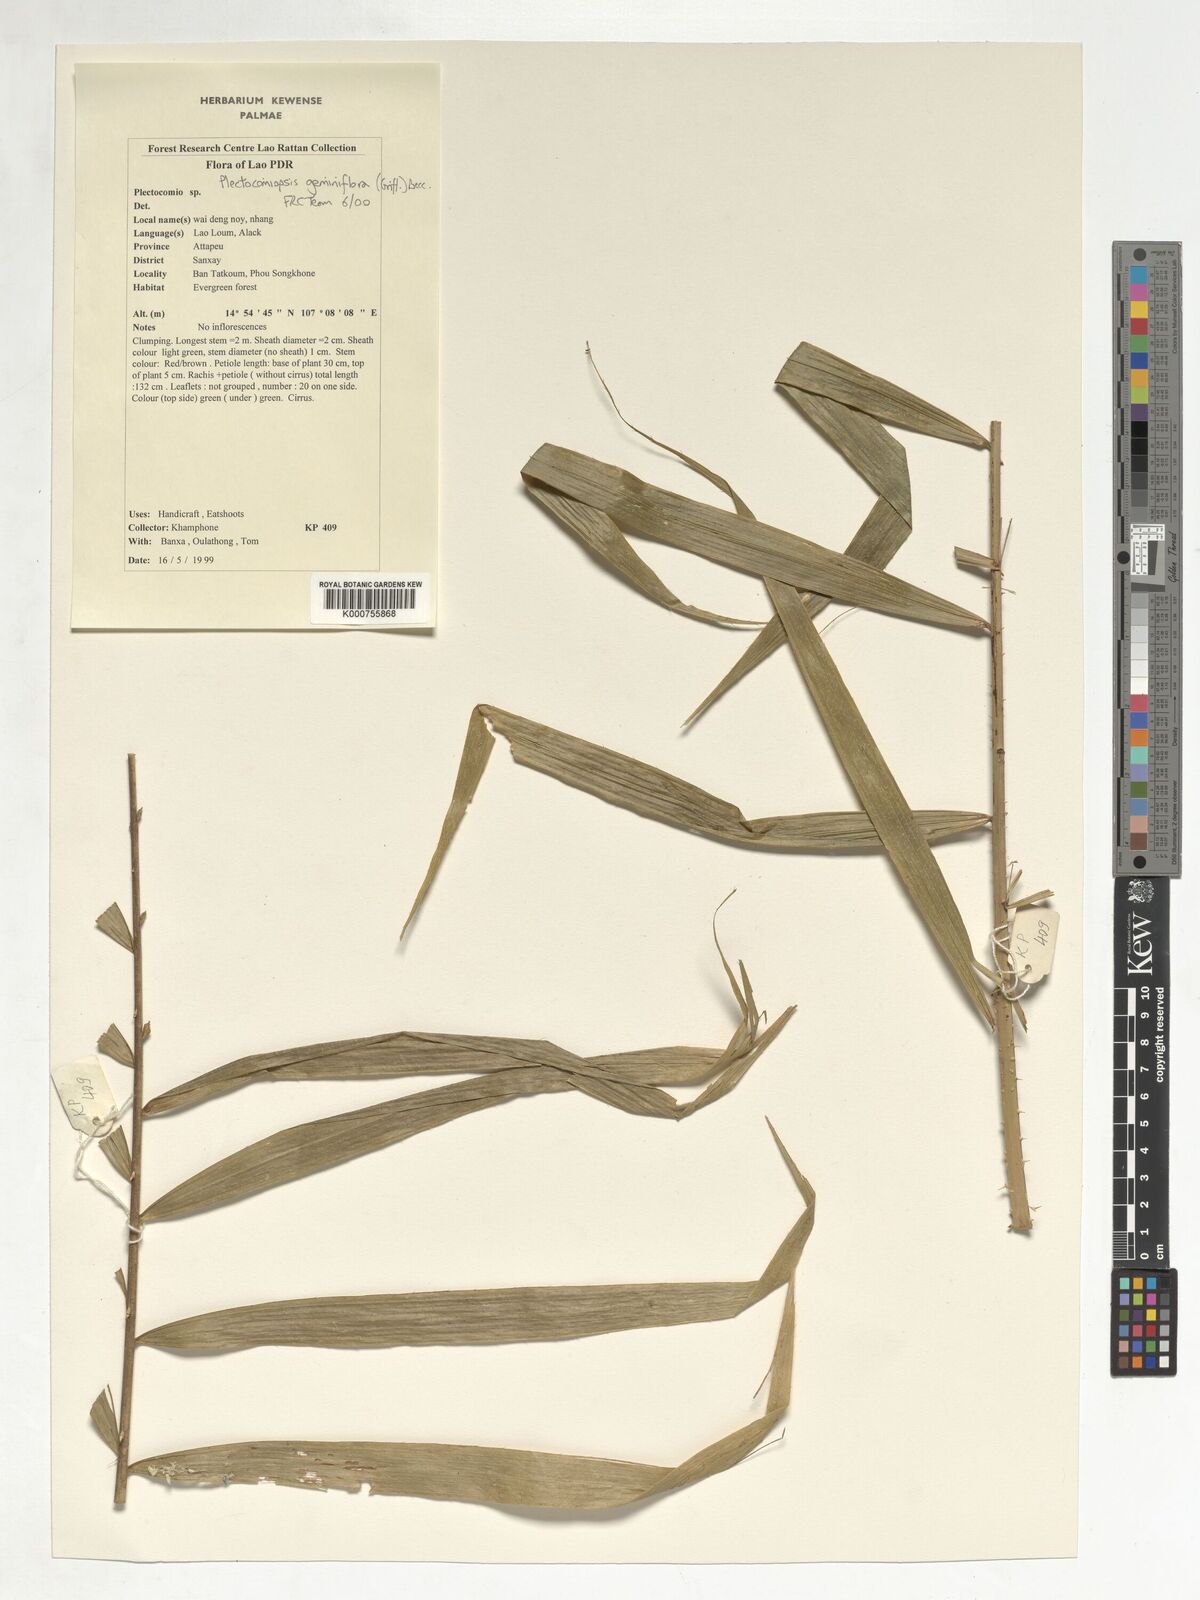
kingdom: Plantae
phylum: Tracheophyta
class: Liliopsida
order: Arecales
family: Arecaceae
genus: Plectocomiopsis
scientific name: Plectocomiopsis geminiflora
